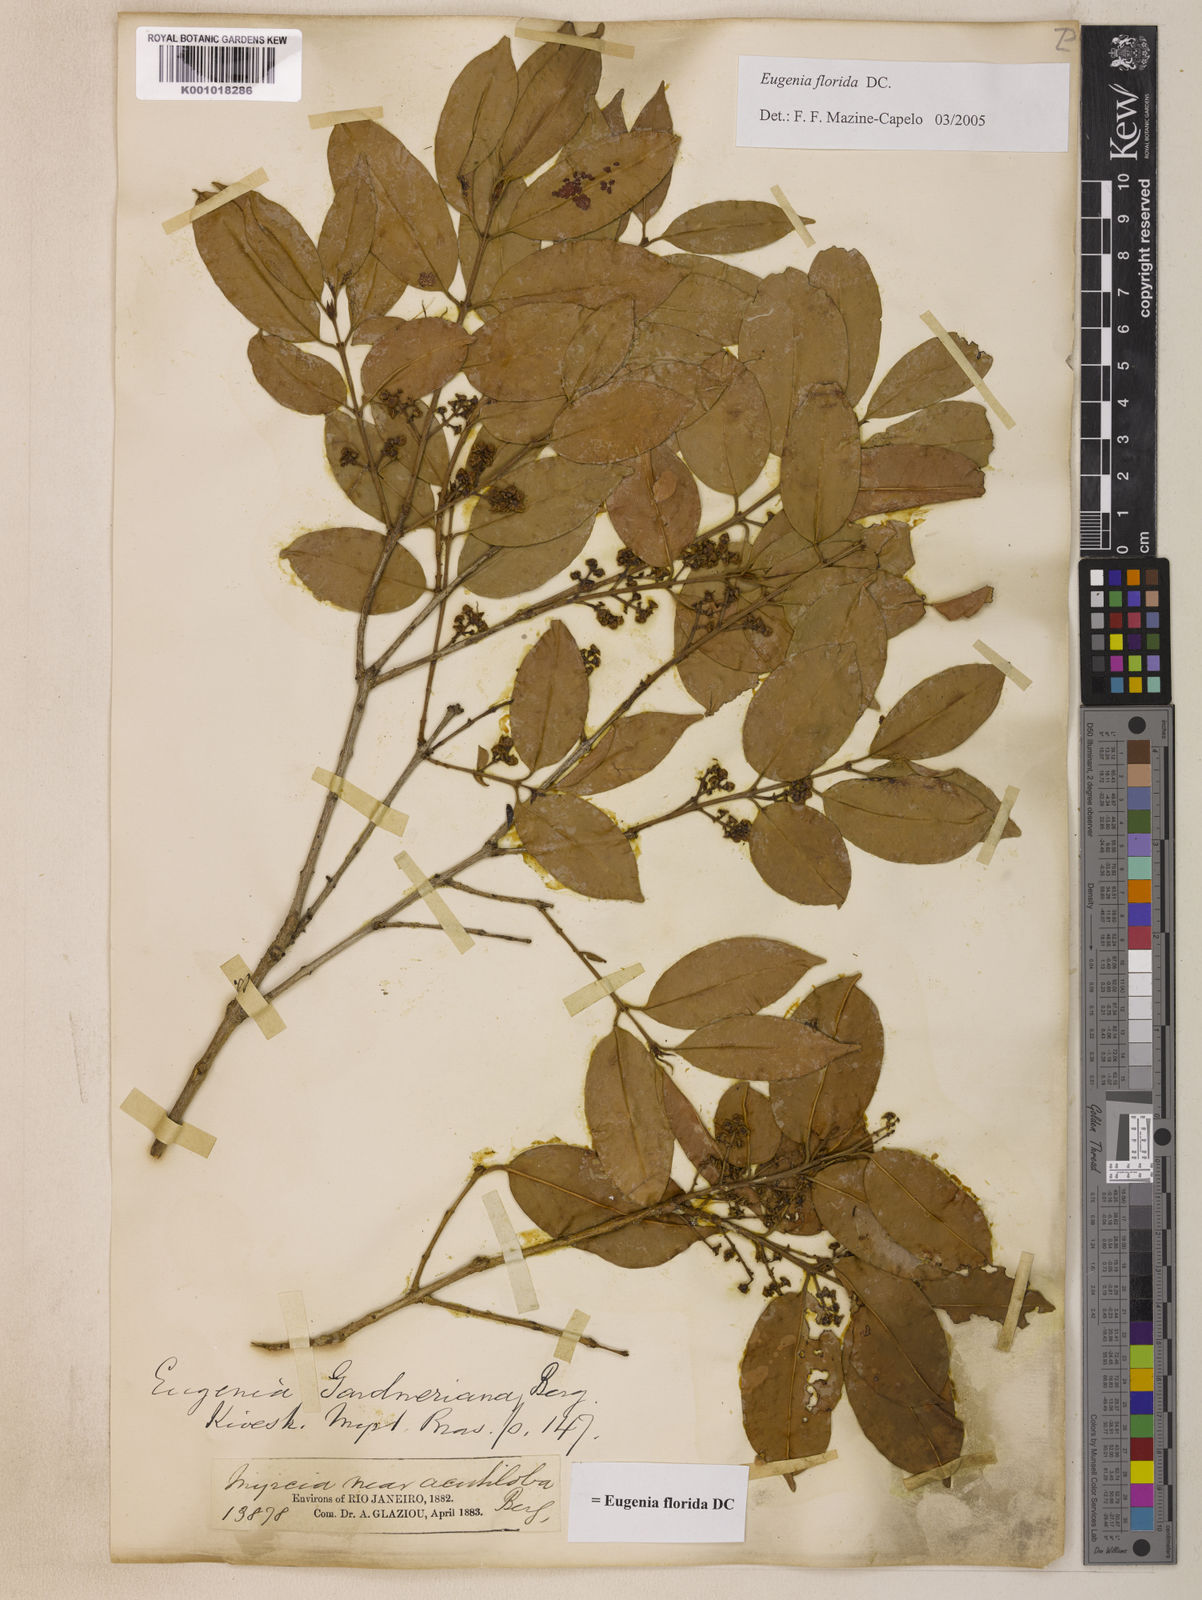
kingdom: Plantae
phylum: Tracheophyta
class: Magnoliopsida
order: Myrtales
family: Myrtaceae
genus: Eugenia
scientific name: Eugenia florida
